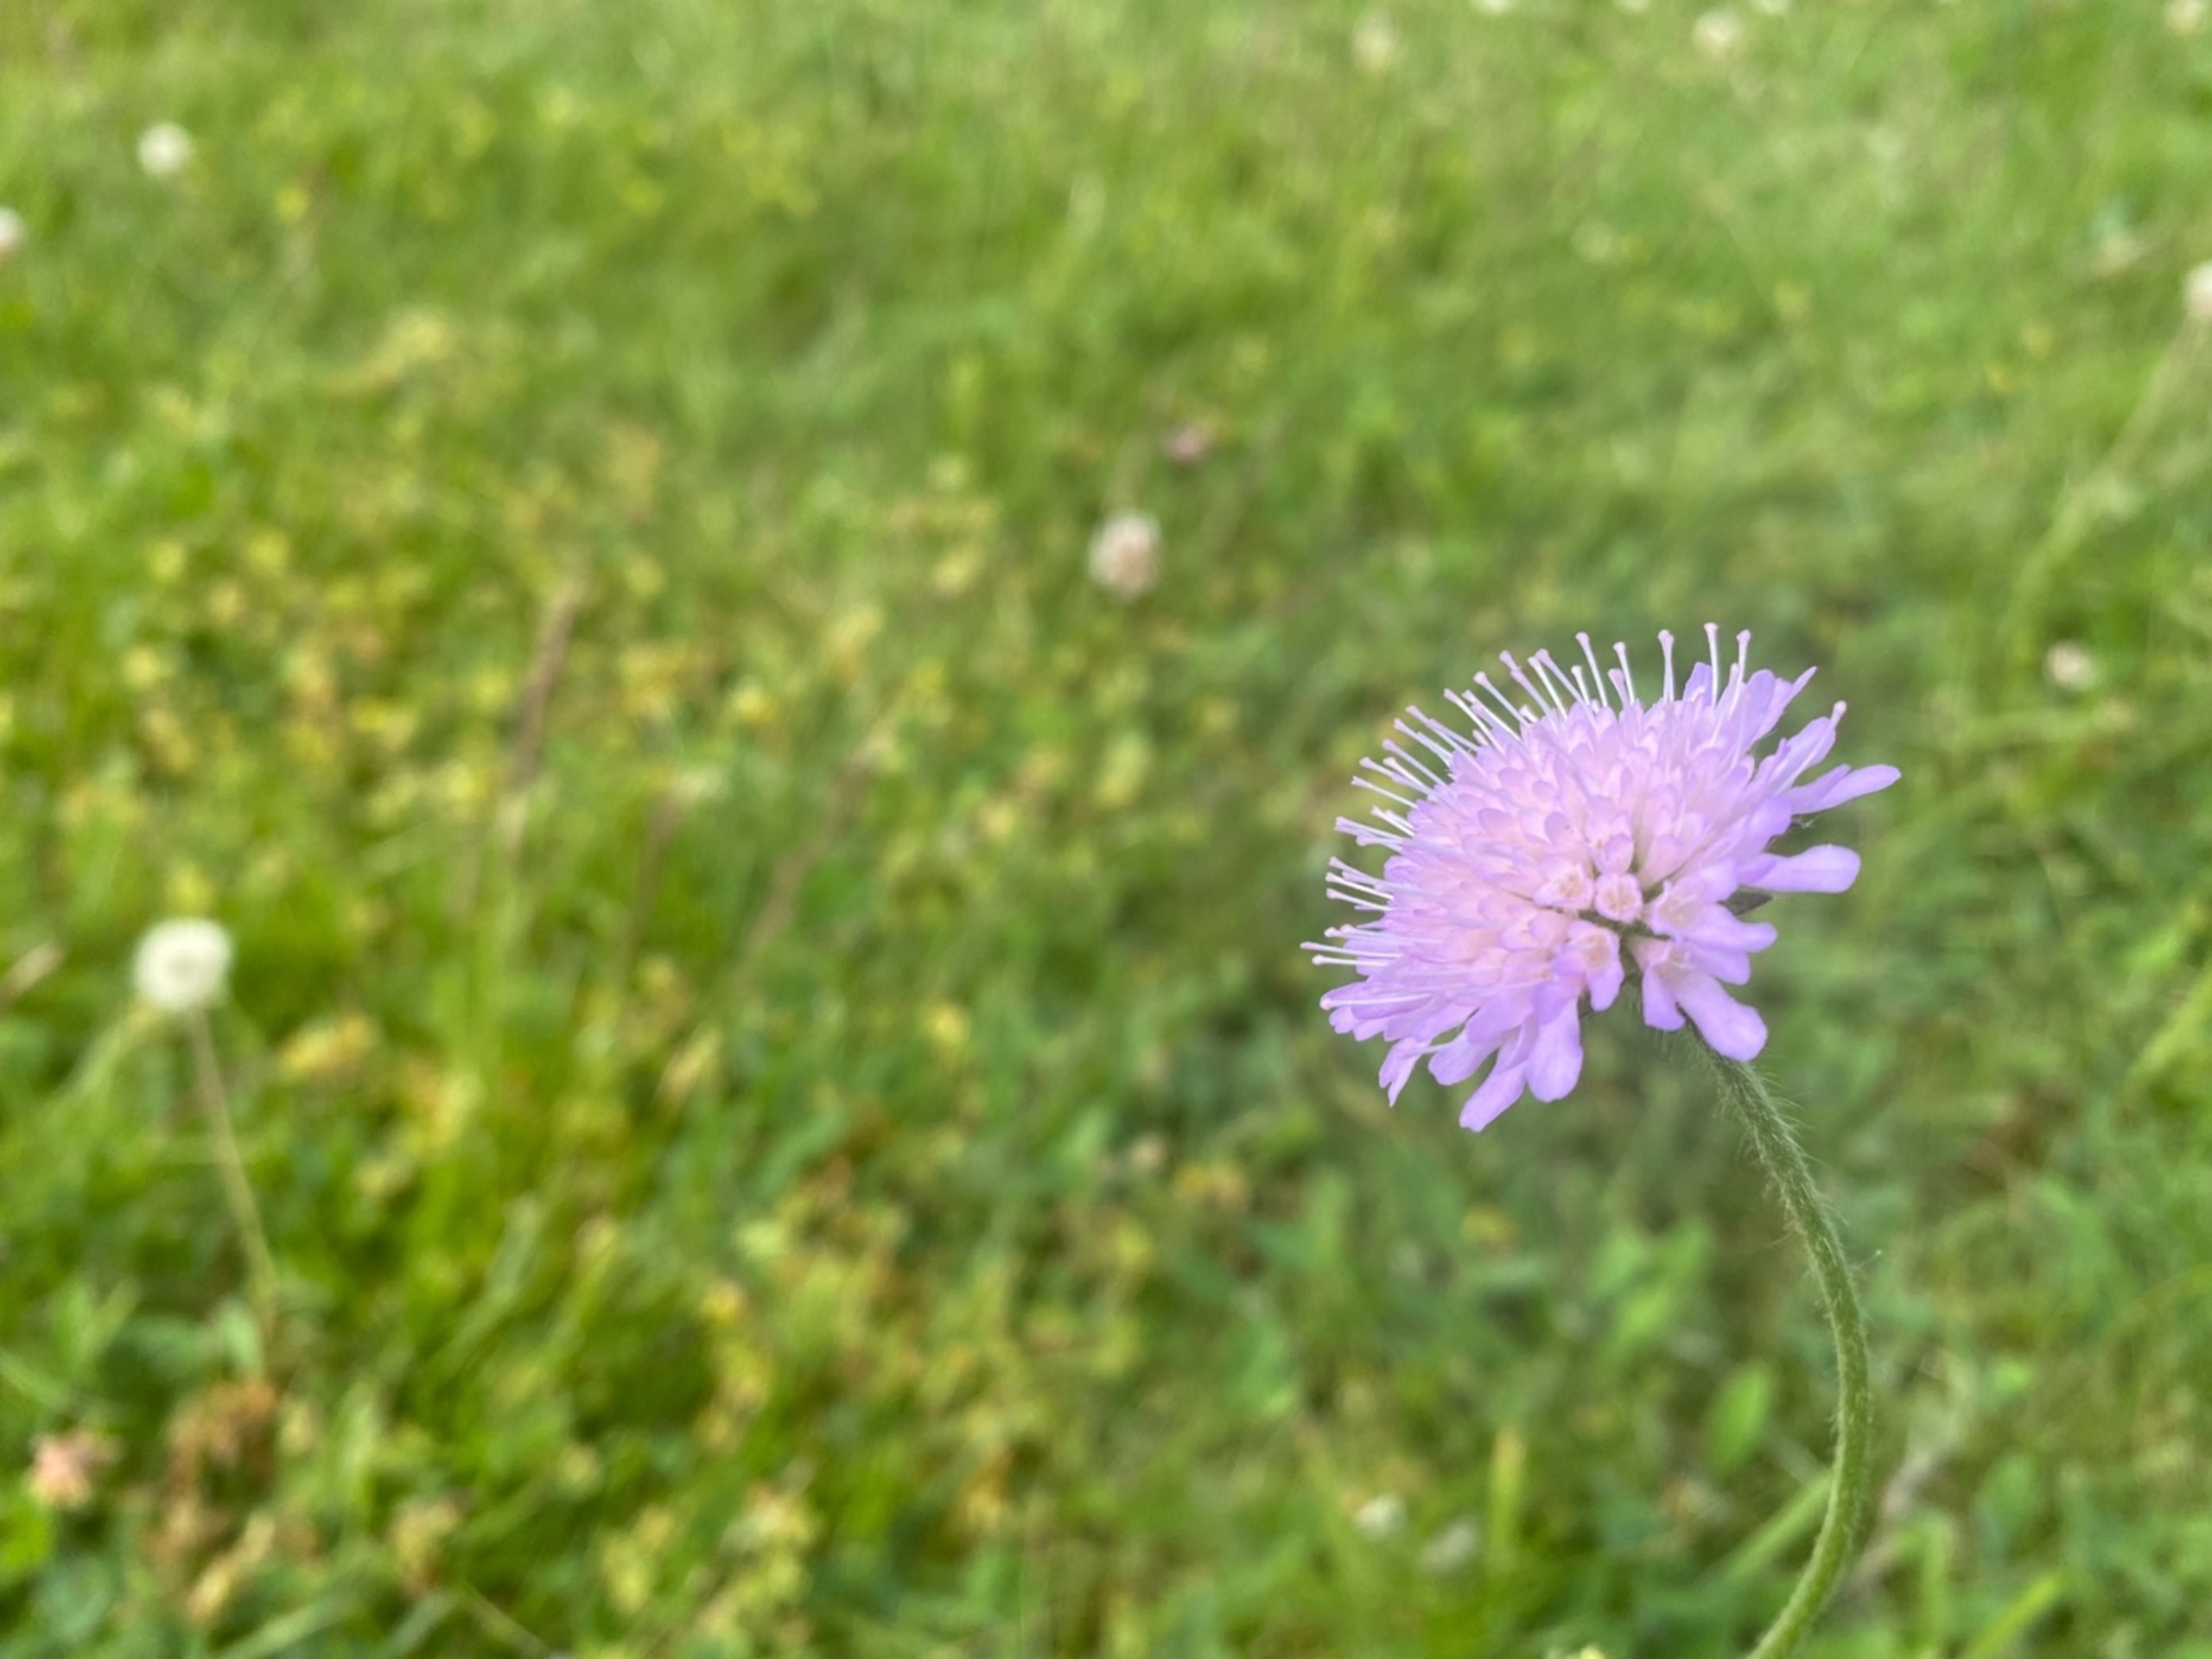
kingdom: Plantae
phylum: Tracheophyta
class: Magnoliopsida
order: Dipsacales
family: Caprifoliaceae
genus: Knautia
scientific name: Knautia arvensis
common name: Blåhat
